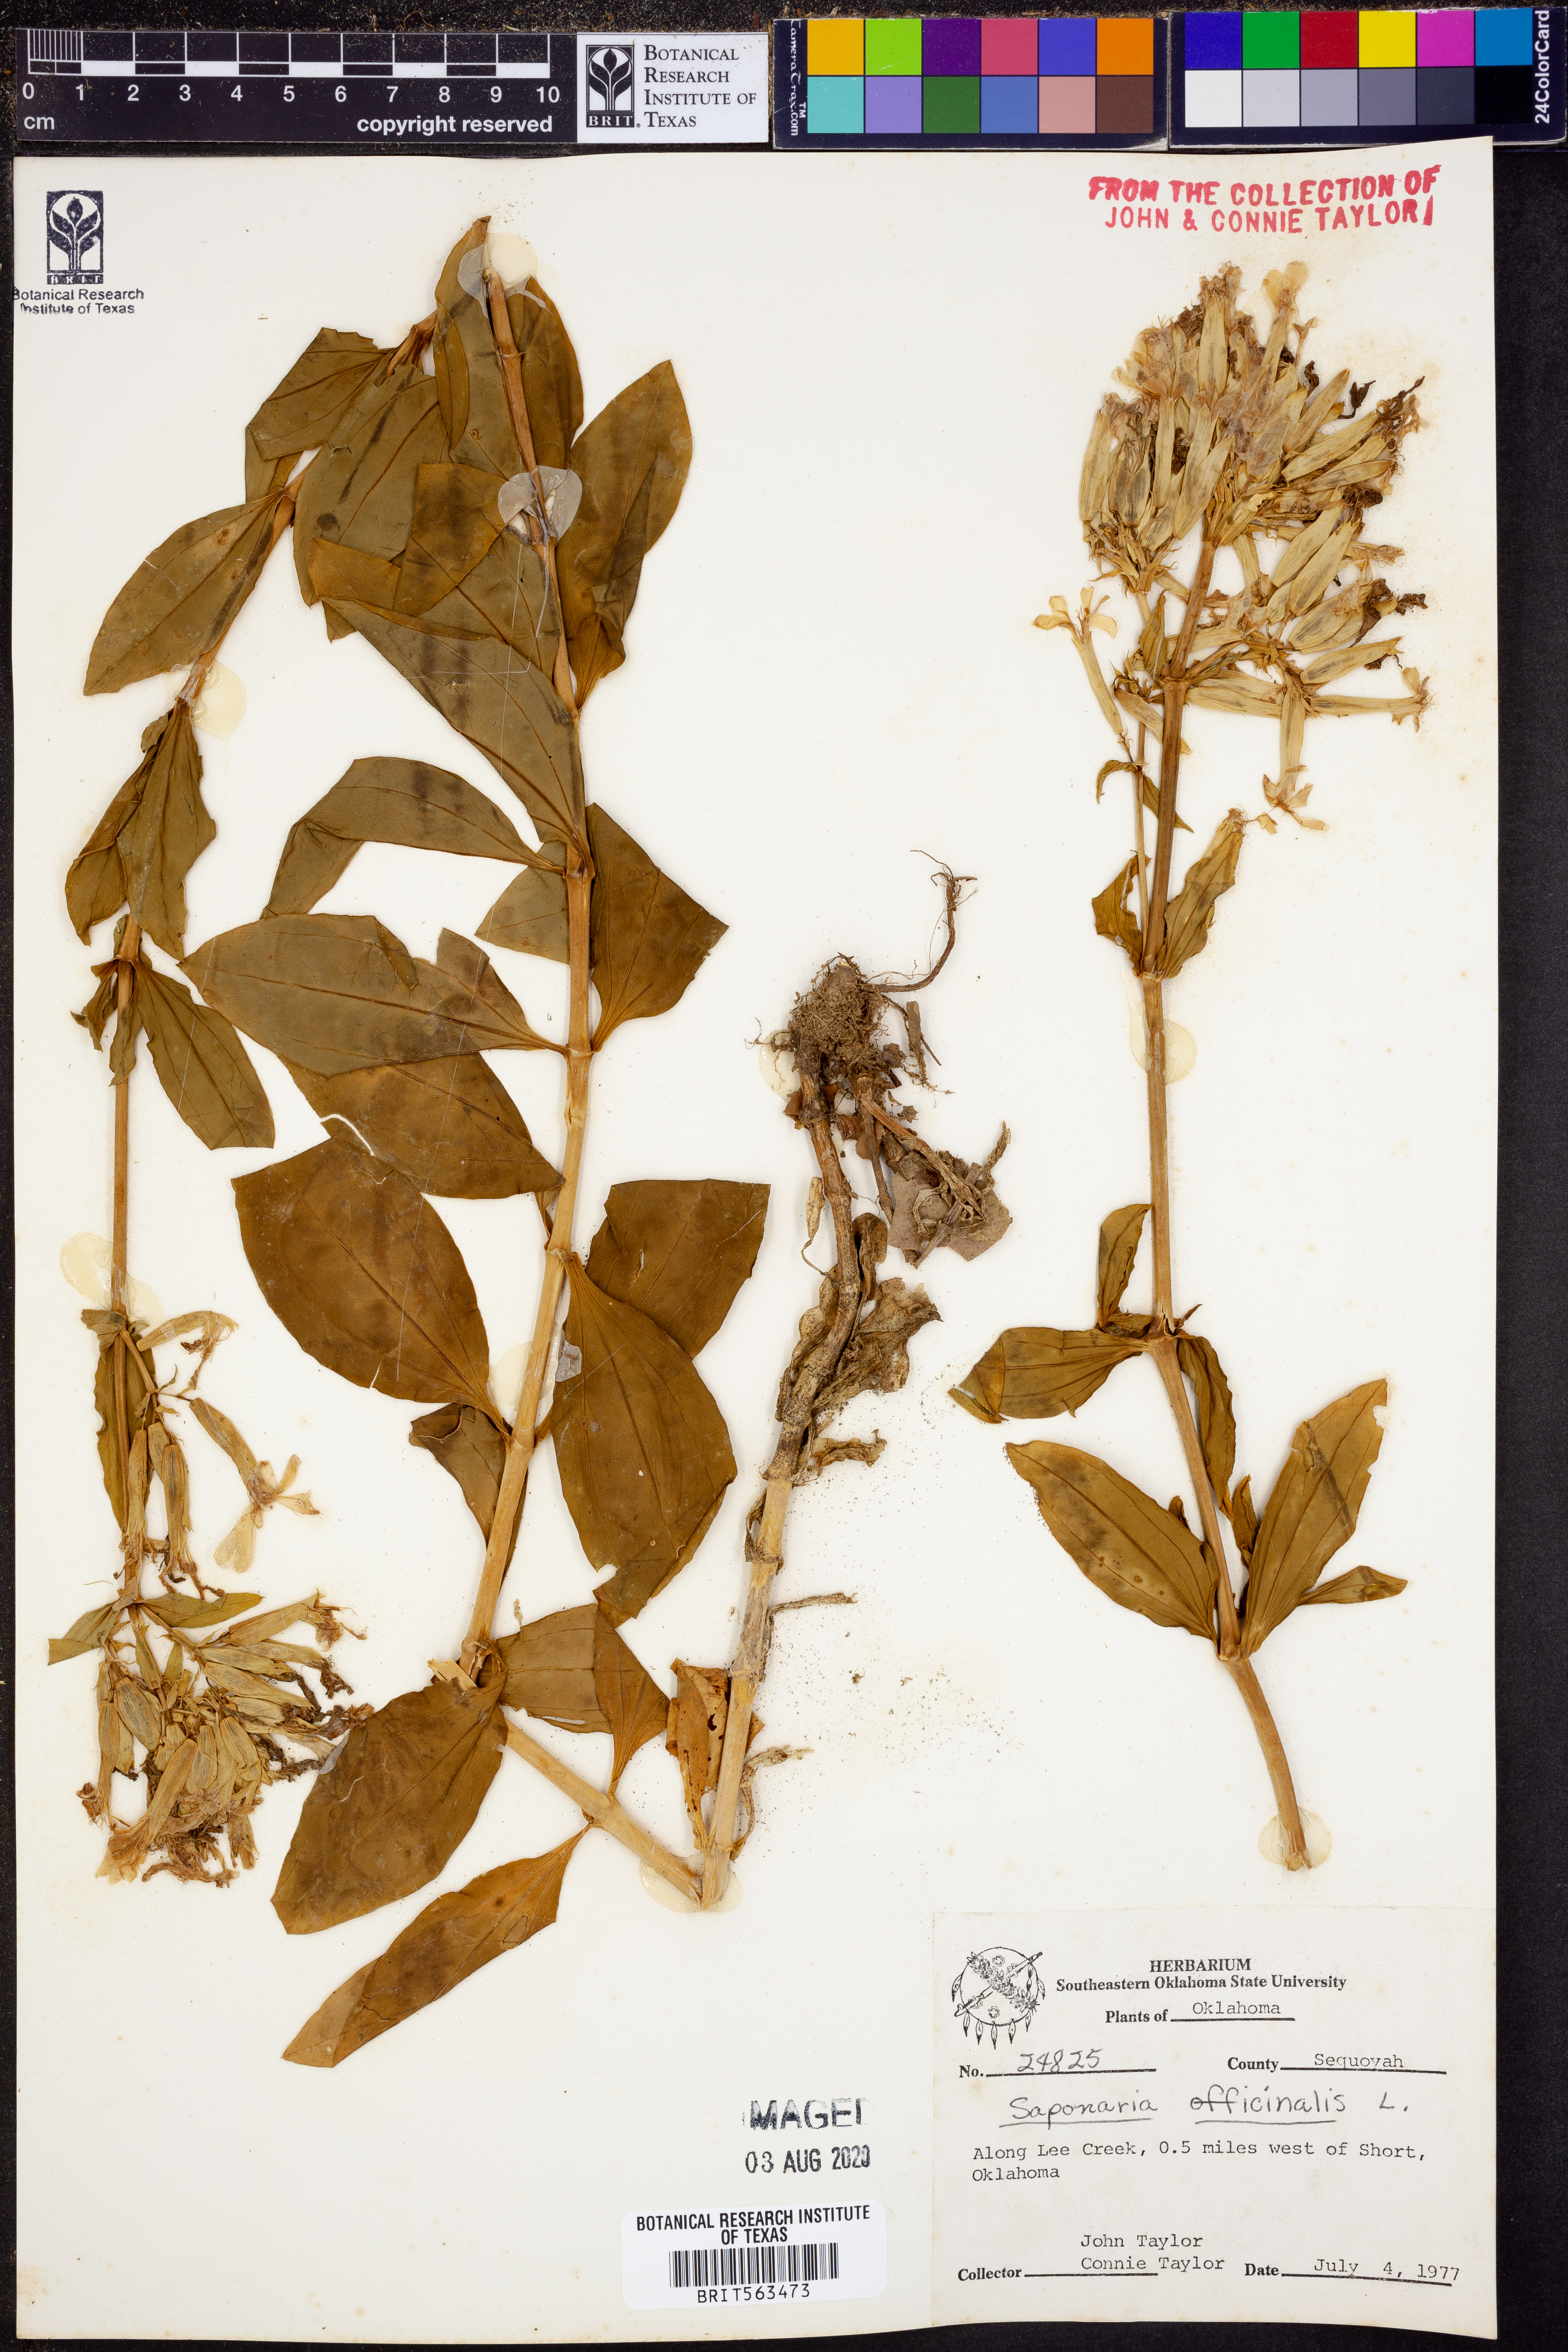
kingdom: Plantae
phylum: Tracheophyta
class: Magnoliopsida
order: Caryophyllales
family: Caryophyllaceae
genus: Saponaria
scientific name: Saponaria officinalis
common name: Soapwort
